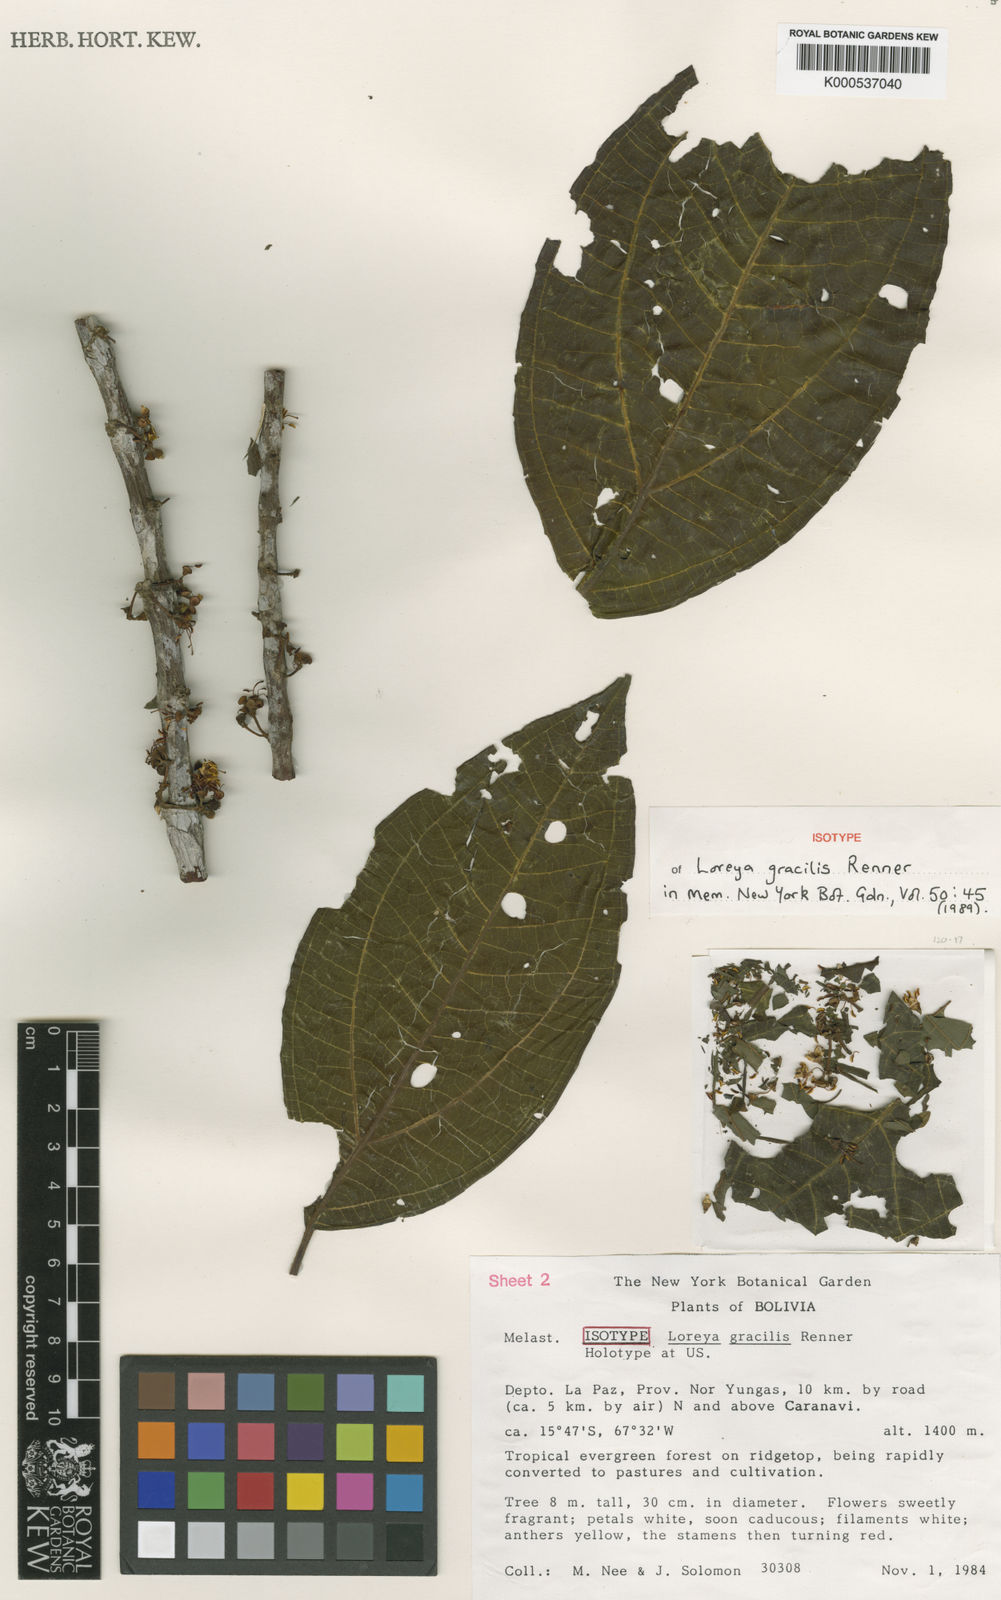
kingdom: Plantae
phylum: Tracheophyta
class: Magnoliopsida
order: Myrtales
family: Melastomataceae
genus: Bellucia
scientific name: Bellucia gracilis
